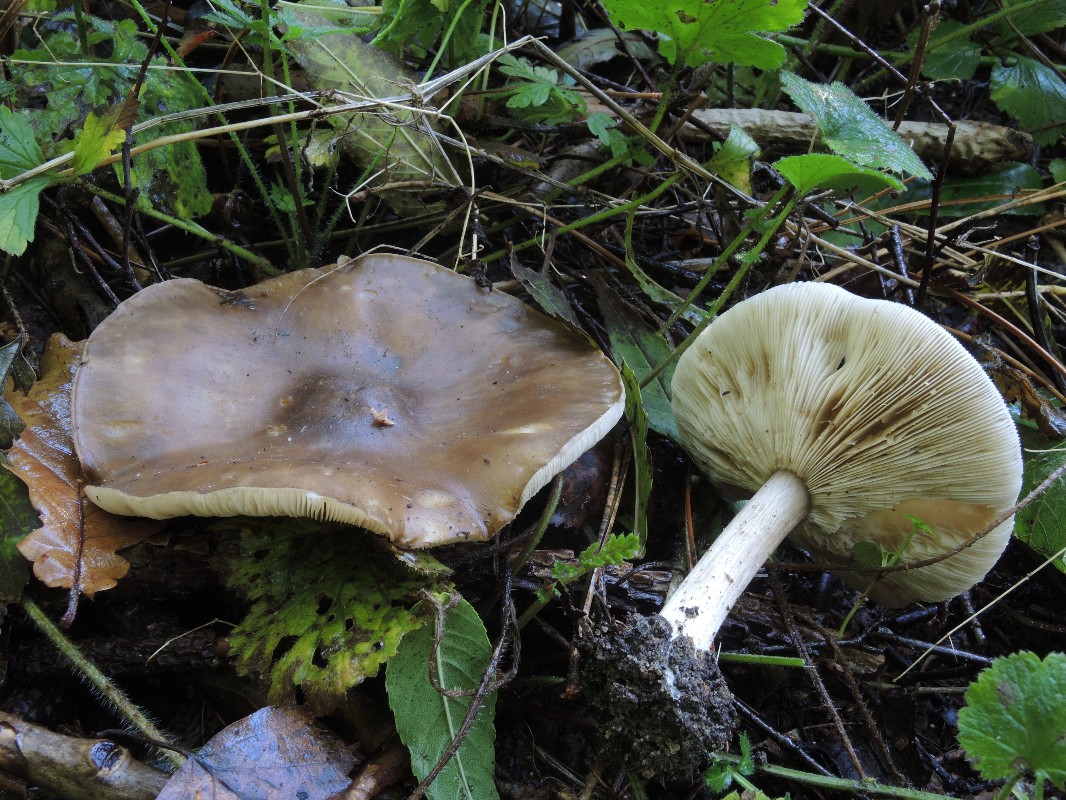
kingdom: Fungi
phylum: Basidiomycota
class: Agaricomycetes
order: Agaricales
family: Tricholomataceae
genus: Melanoleuca
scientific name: Melanoleuca
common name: munkehat
